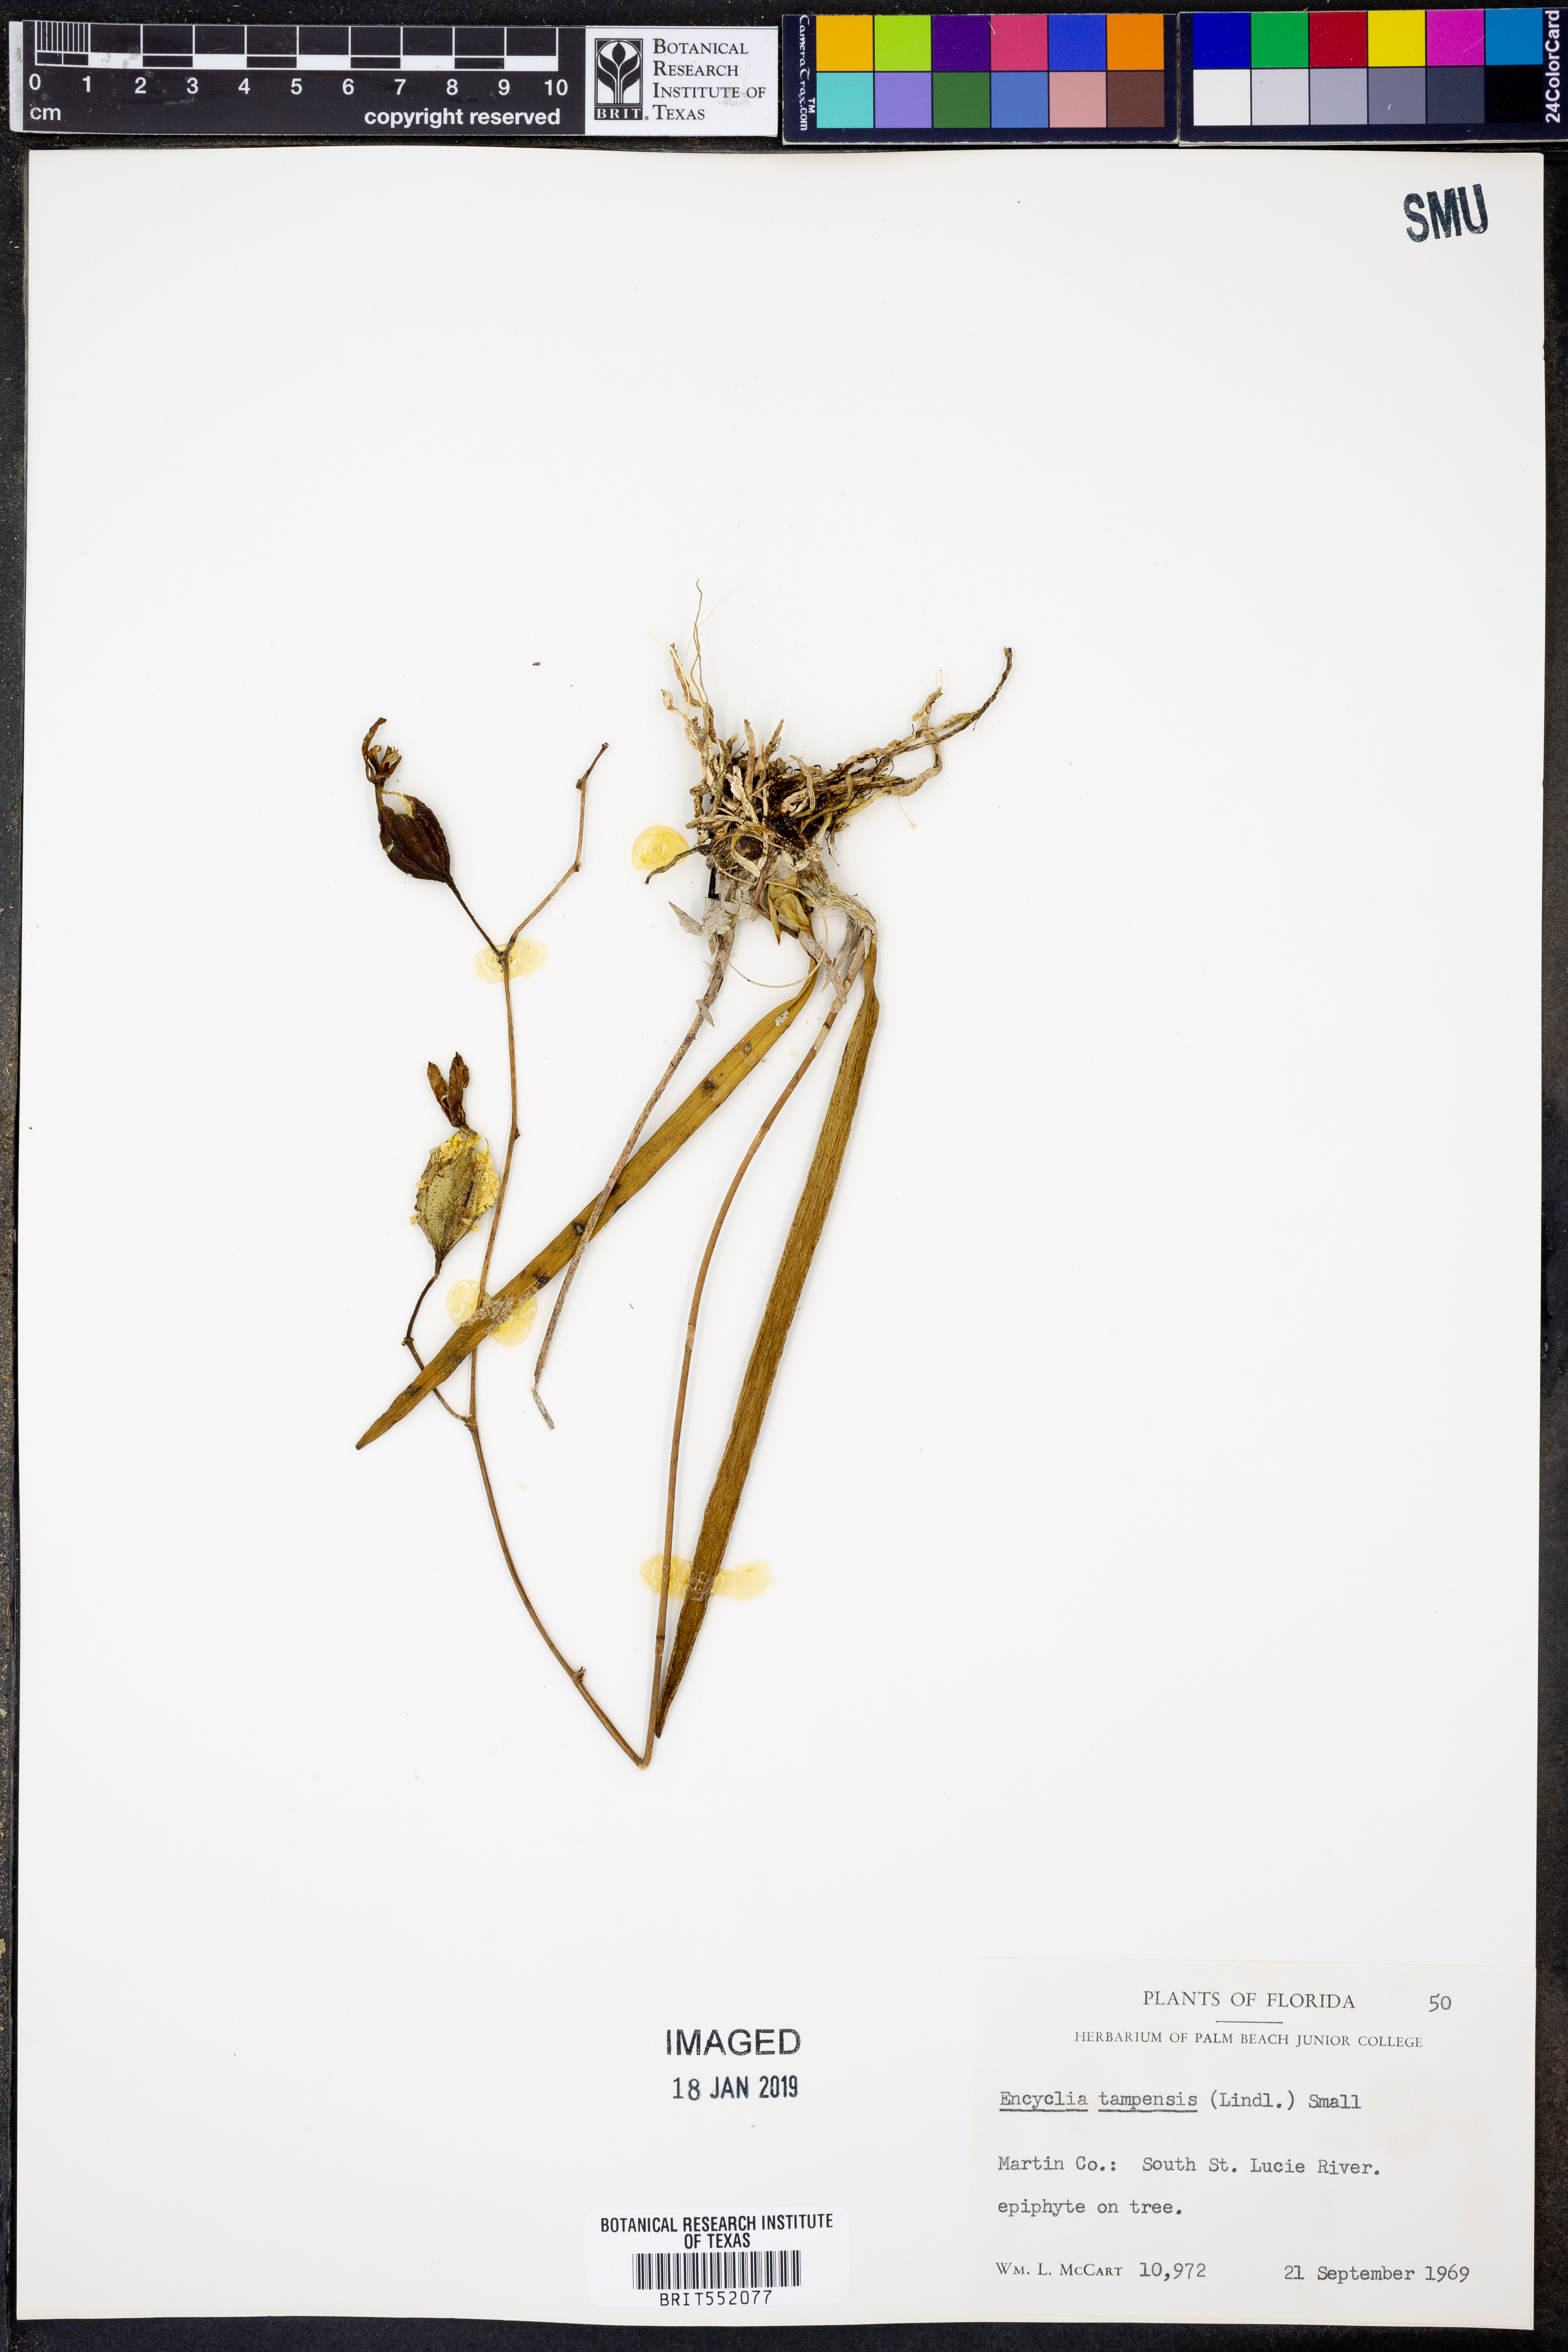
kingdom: Plantae
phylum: Tracheophyta
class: Liliopsida
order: Asparagales
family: Orchidaceae
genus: Encyclia
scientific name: Encyclia tampensis
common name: Florida butterfly orchid
